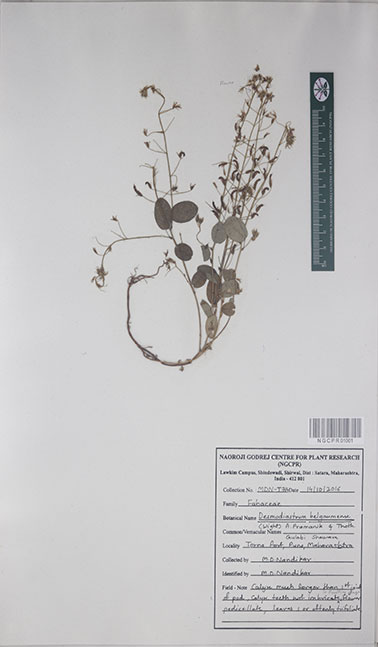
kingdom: Plantae
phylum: Tracheophyta
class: Magnoliopsida
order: Fabales
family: Fabaceae
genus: Alysicarpus
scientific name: Alysicarpus belgaumensis
